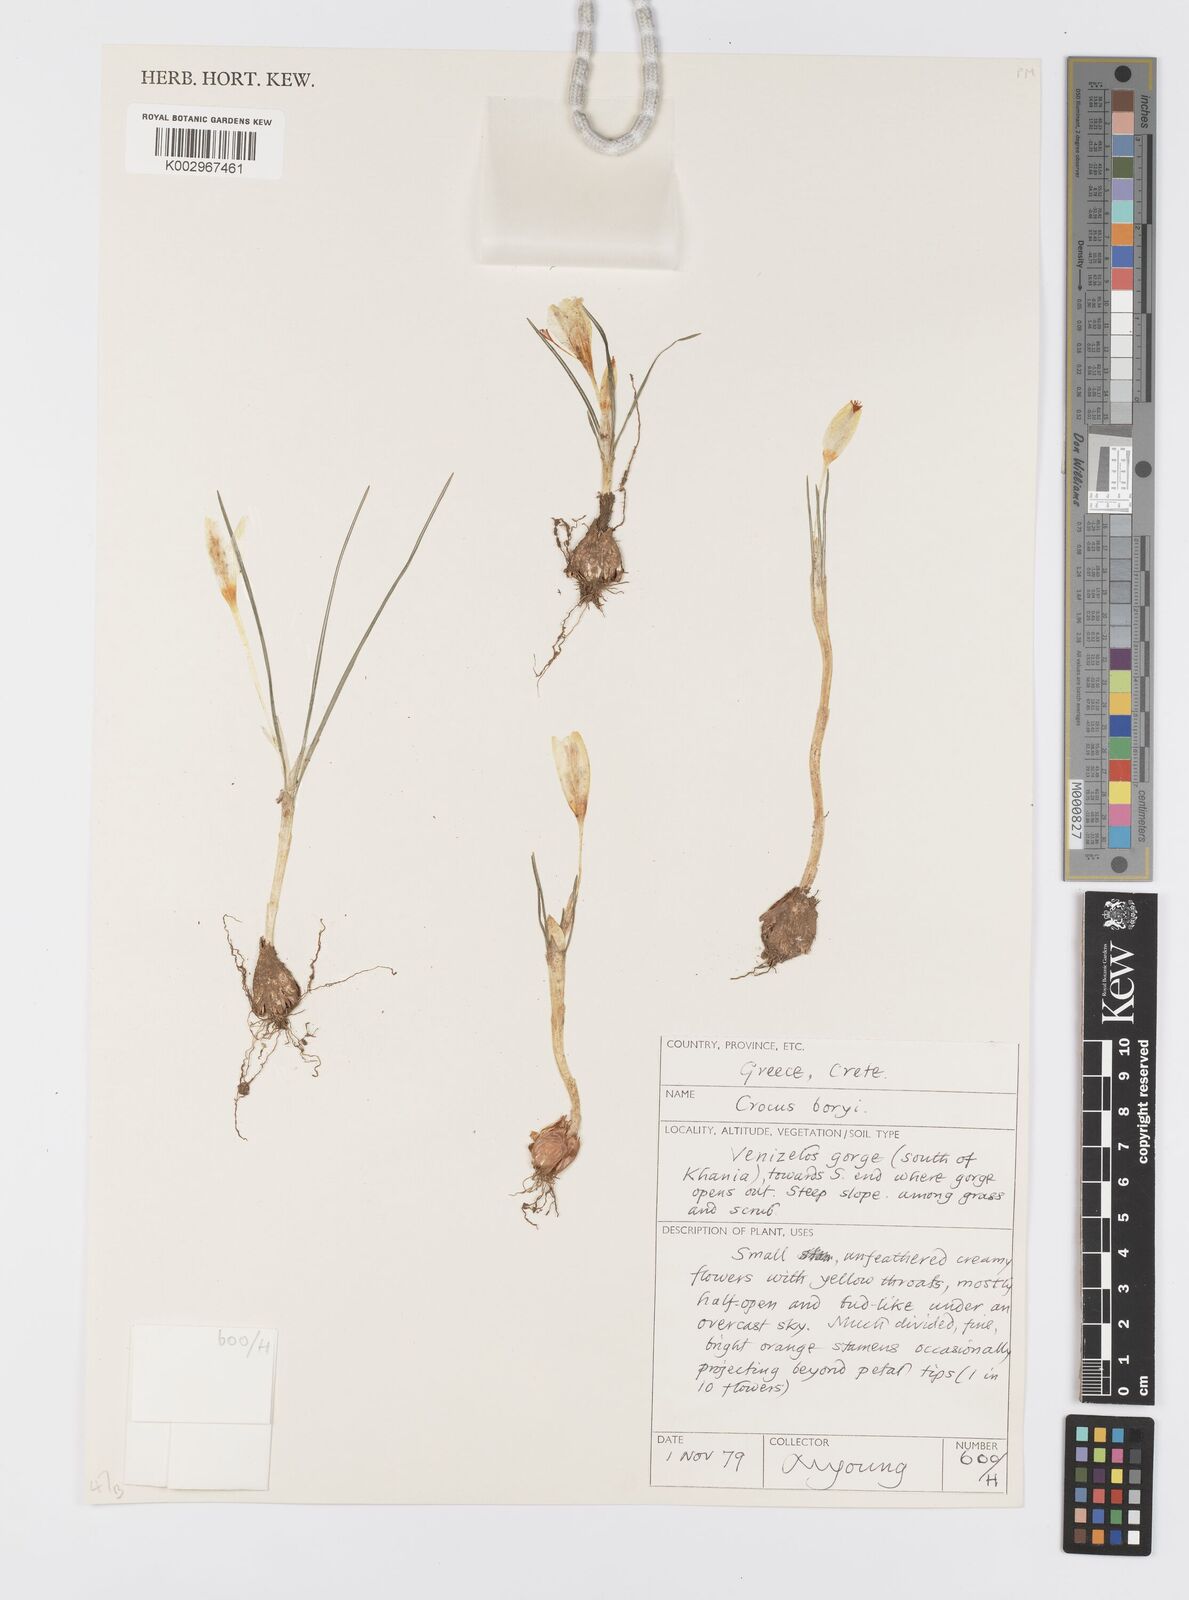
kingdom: Plantae
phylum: Tracheophyta
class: Liliopsida
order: Asparagales
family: Iridaceae
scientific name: Iridaceae
